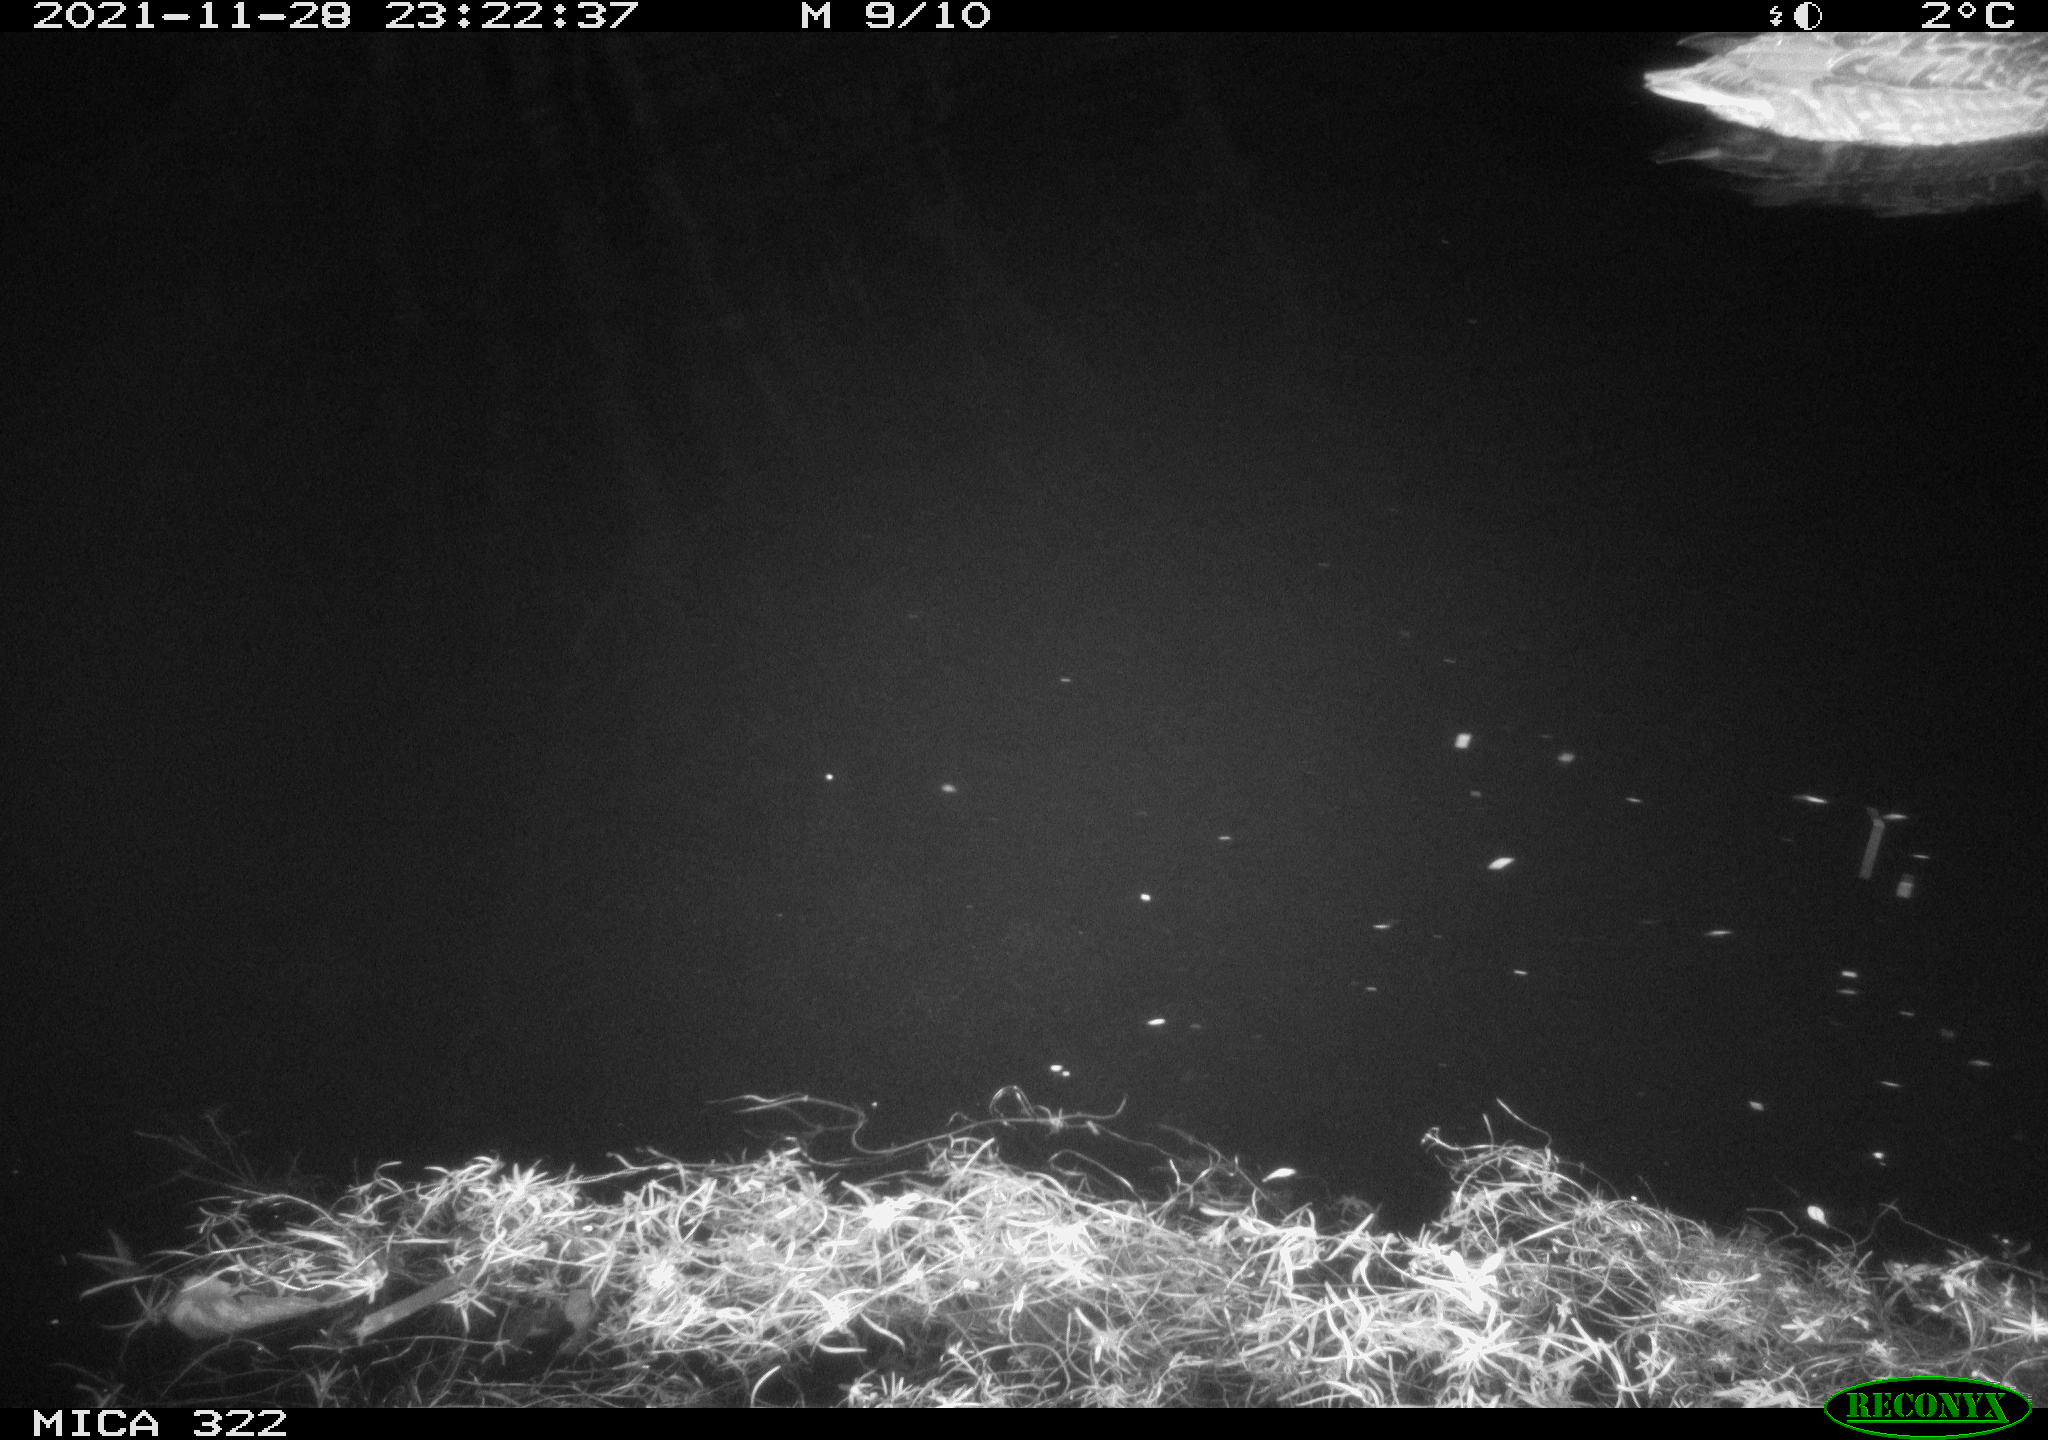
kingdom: Animalia
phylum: Chordata
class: Aves
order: Anseriformes
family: Anatidae
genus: Anas
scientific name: Anas platyrhynchos
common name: Mallard
